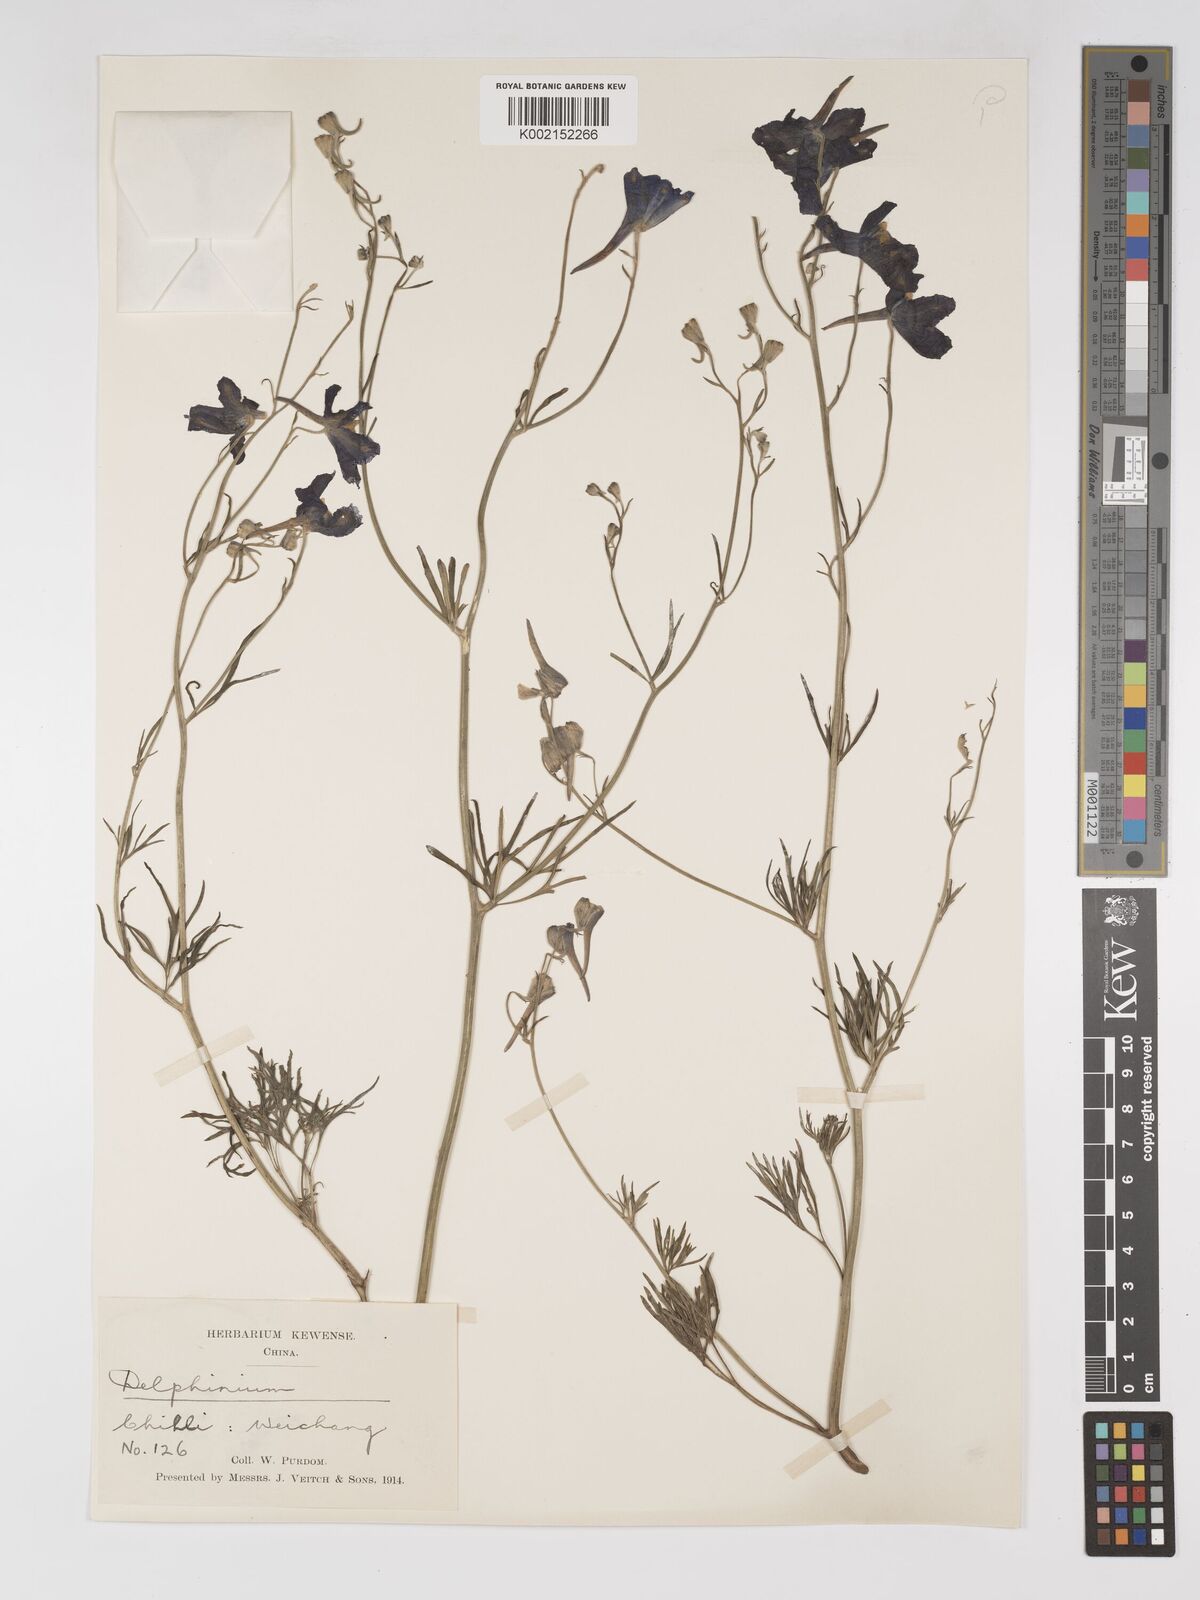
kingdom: Plantae
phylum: Tracheophyta
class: Magnoliopsida
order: Ranunculales
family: Ranunculaceae
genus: Delphinium
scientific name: Delphinium grandiflorum
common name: Siberian larkspur
